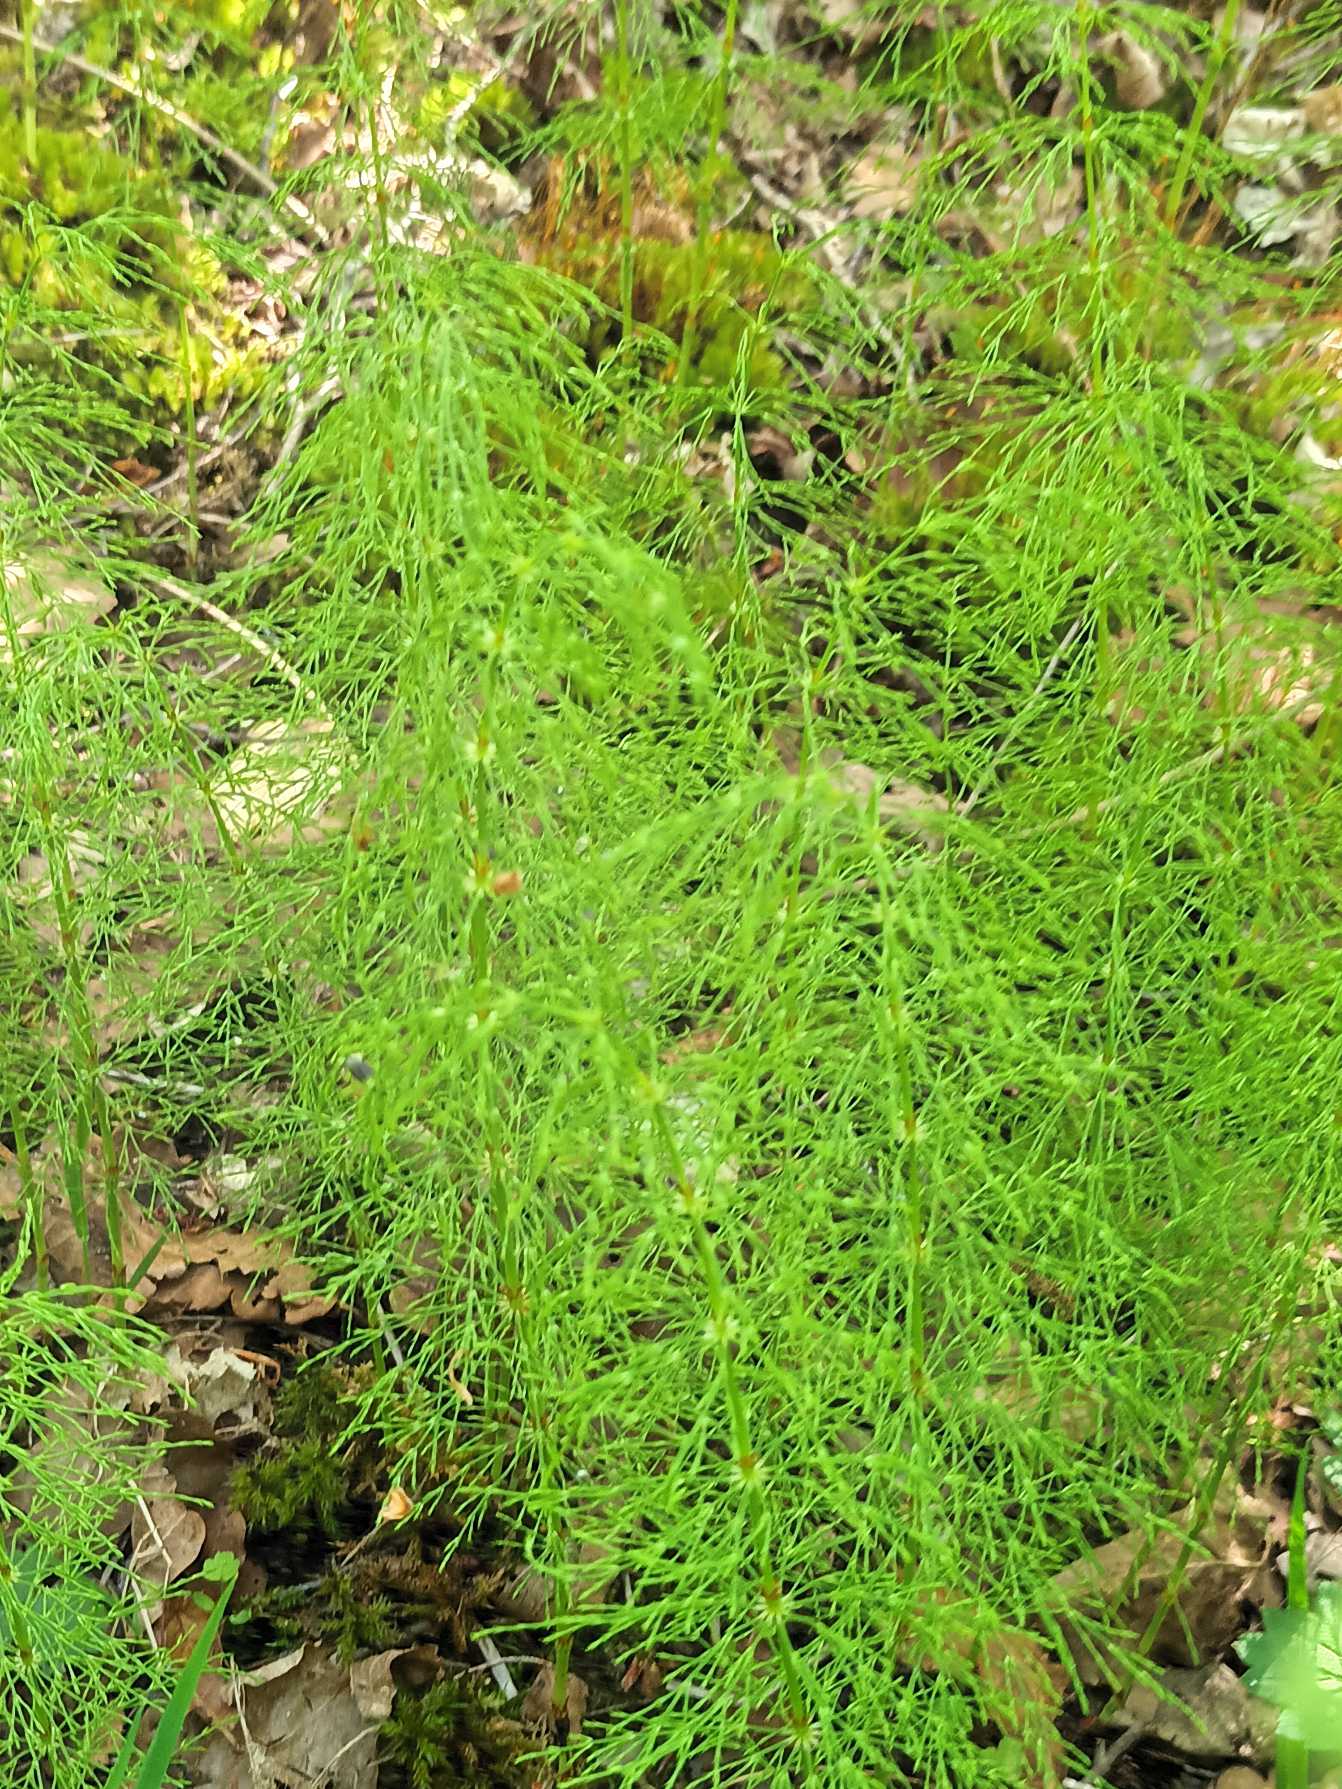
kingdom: Plantae
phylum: Tracheophyta
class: Polypodiopsida
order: Equisetales
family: Equisetaceae
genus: Equisetum
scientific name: Equisetum sylvaticum
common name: Skov-padderok
